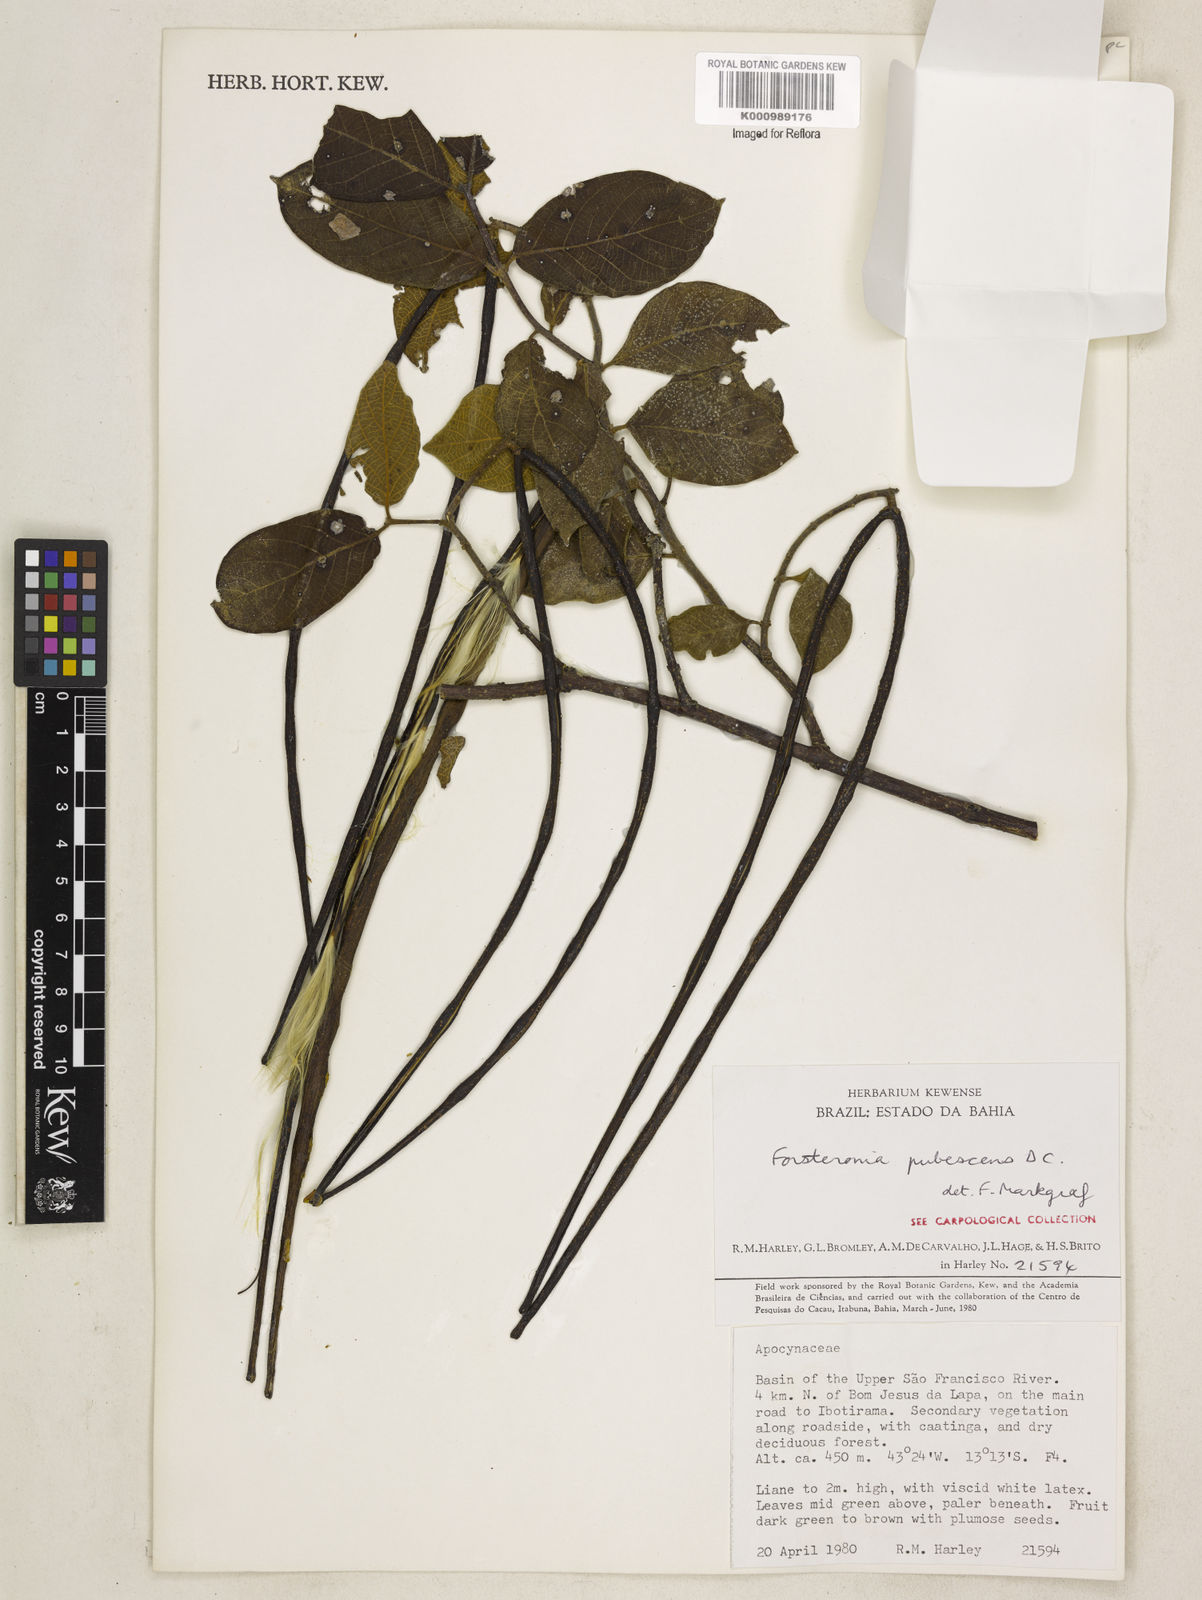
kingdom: Plantae
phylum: Tracheophyta
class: Magnoliopsida
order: Gentianales
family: Apocynaceae
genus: Forsteronia
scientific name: Forsteronia
